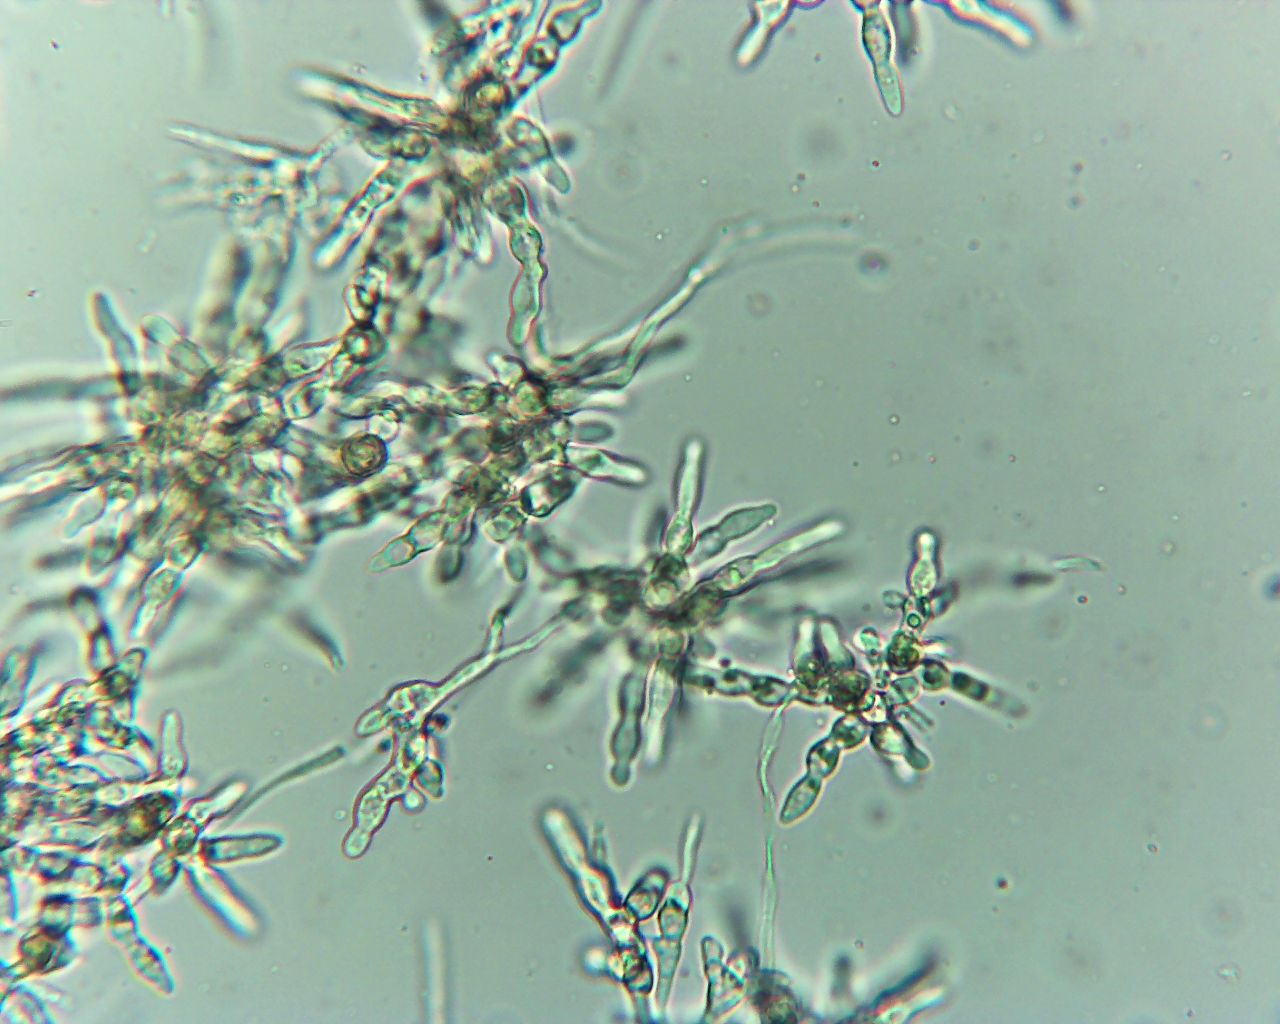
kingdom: Fungi
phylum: Ascomycota
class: Sordariomycetes
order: Xylariales
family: Xylariaceae
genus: Digitodochium
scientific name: Digitodochium rhodoleucum
